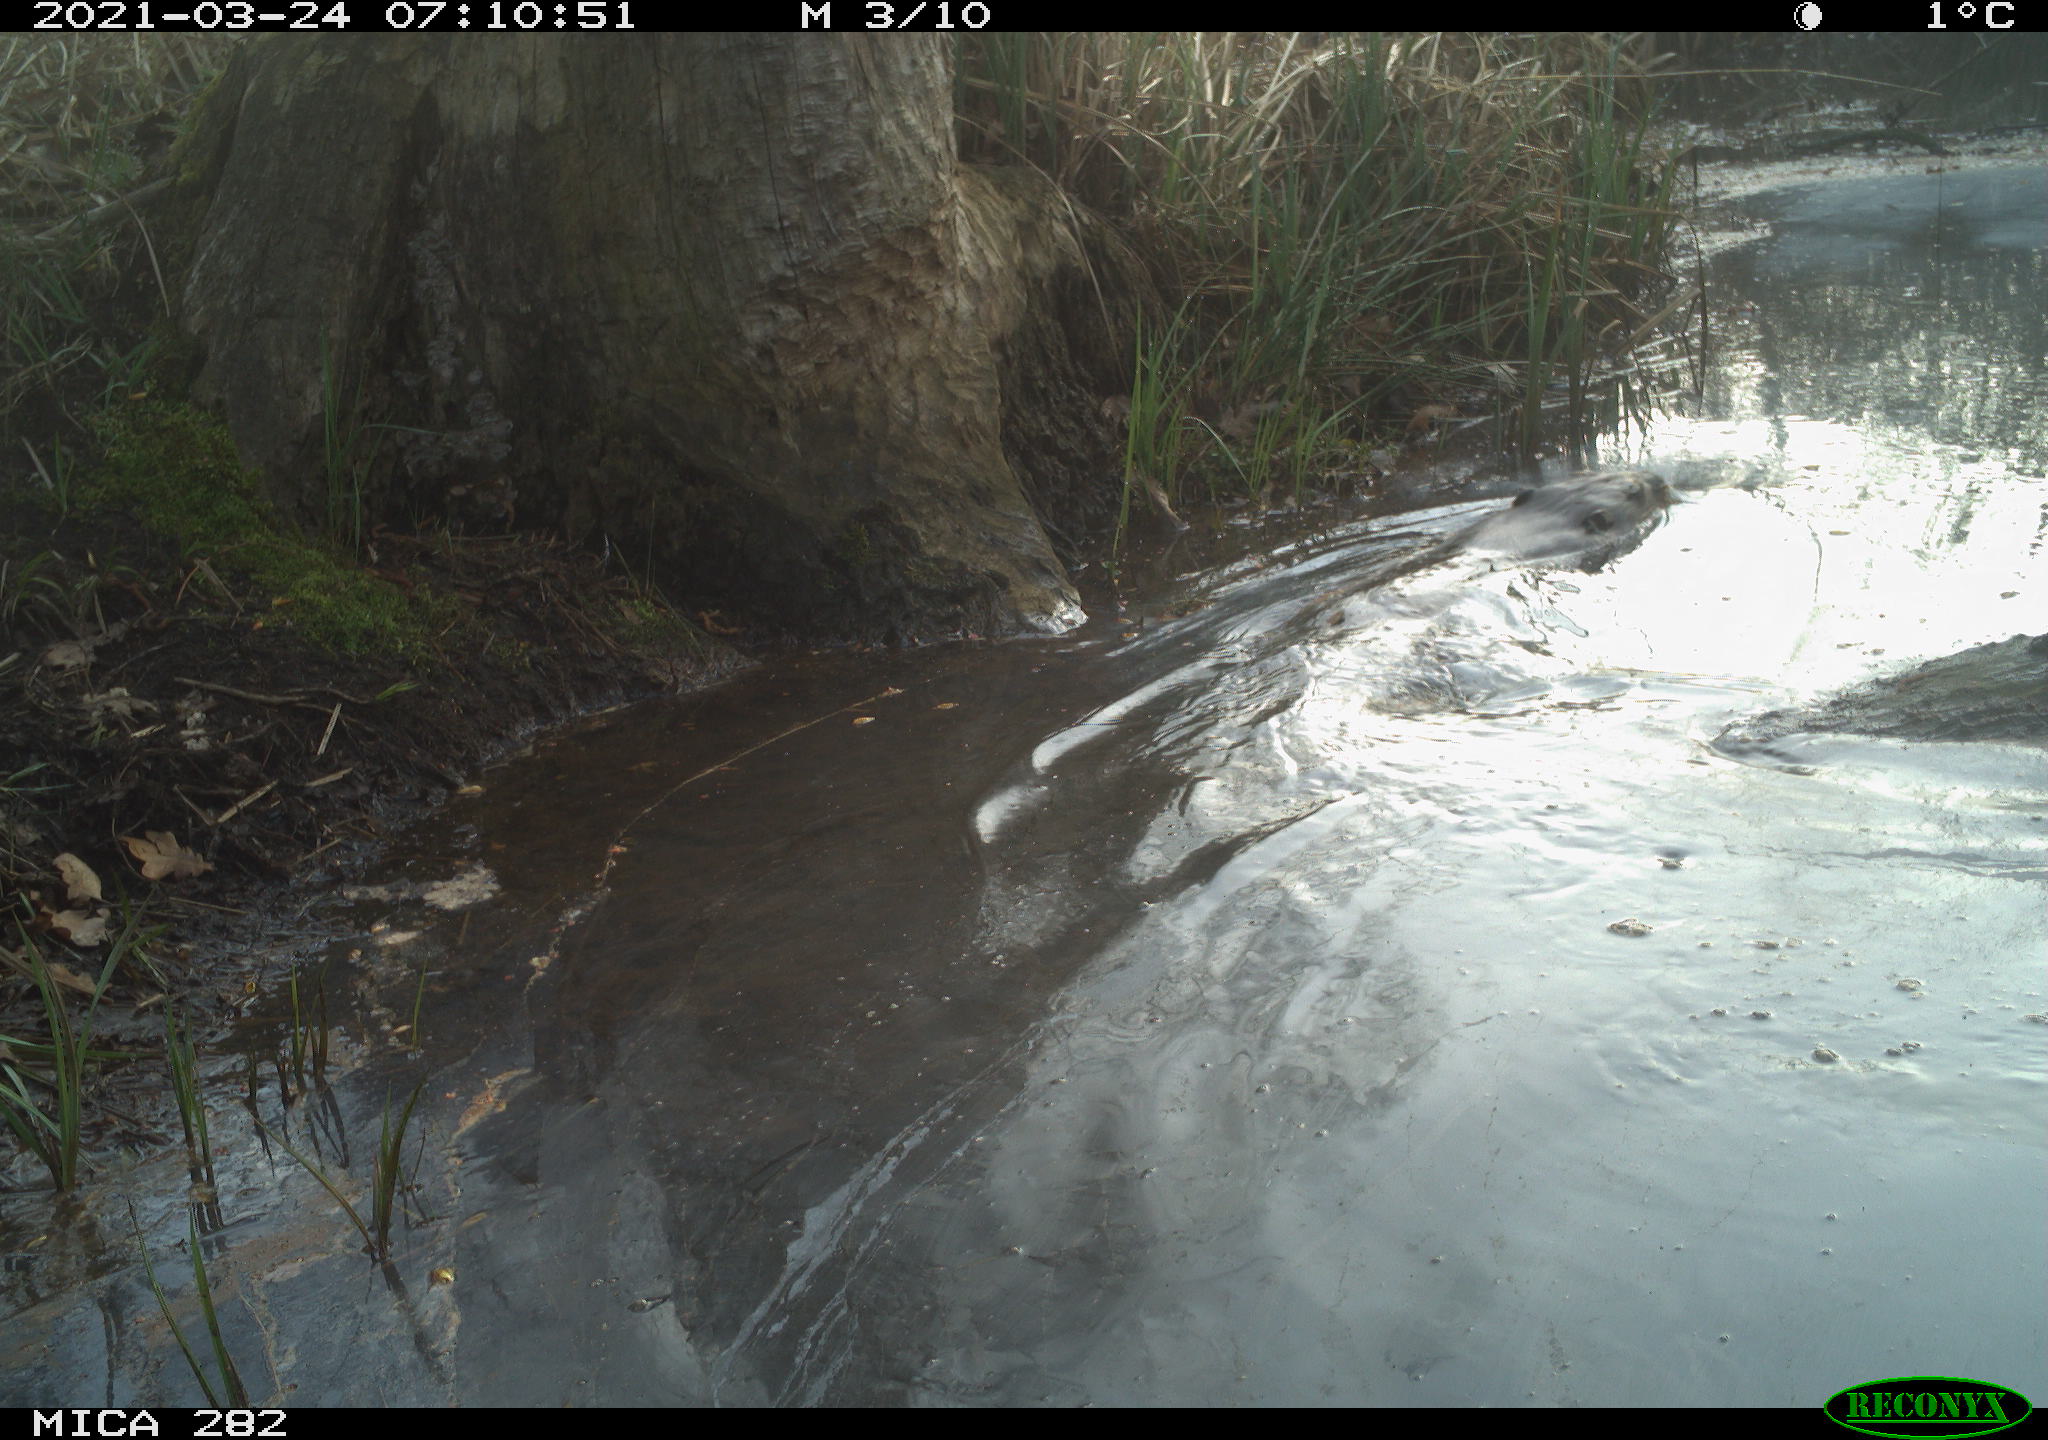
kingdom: Animalia
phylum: Chordata
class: Mammalia
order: Rodentia
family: Castoridae
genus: Castor
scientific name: Castor fiber
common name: Eurasian beaver
